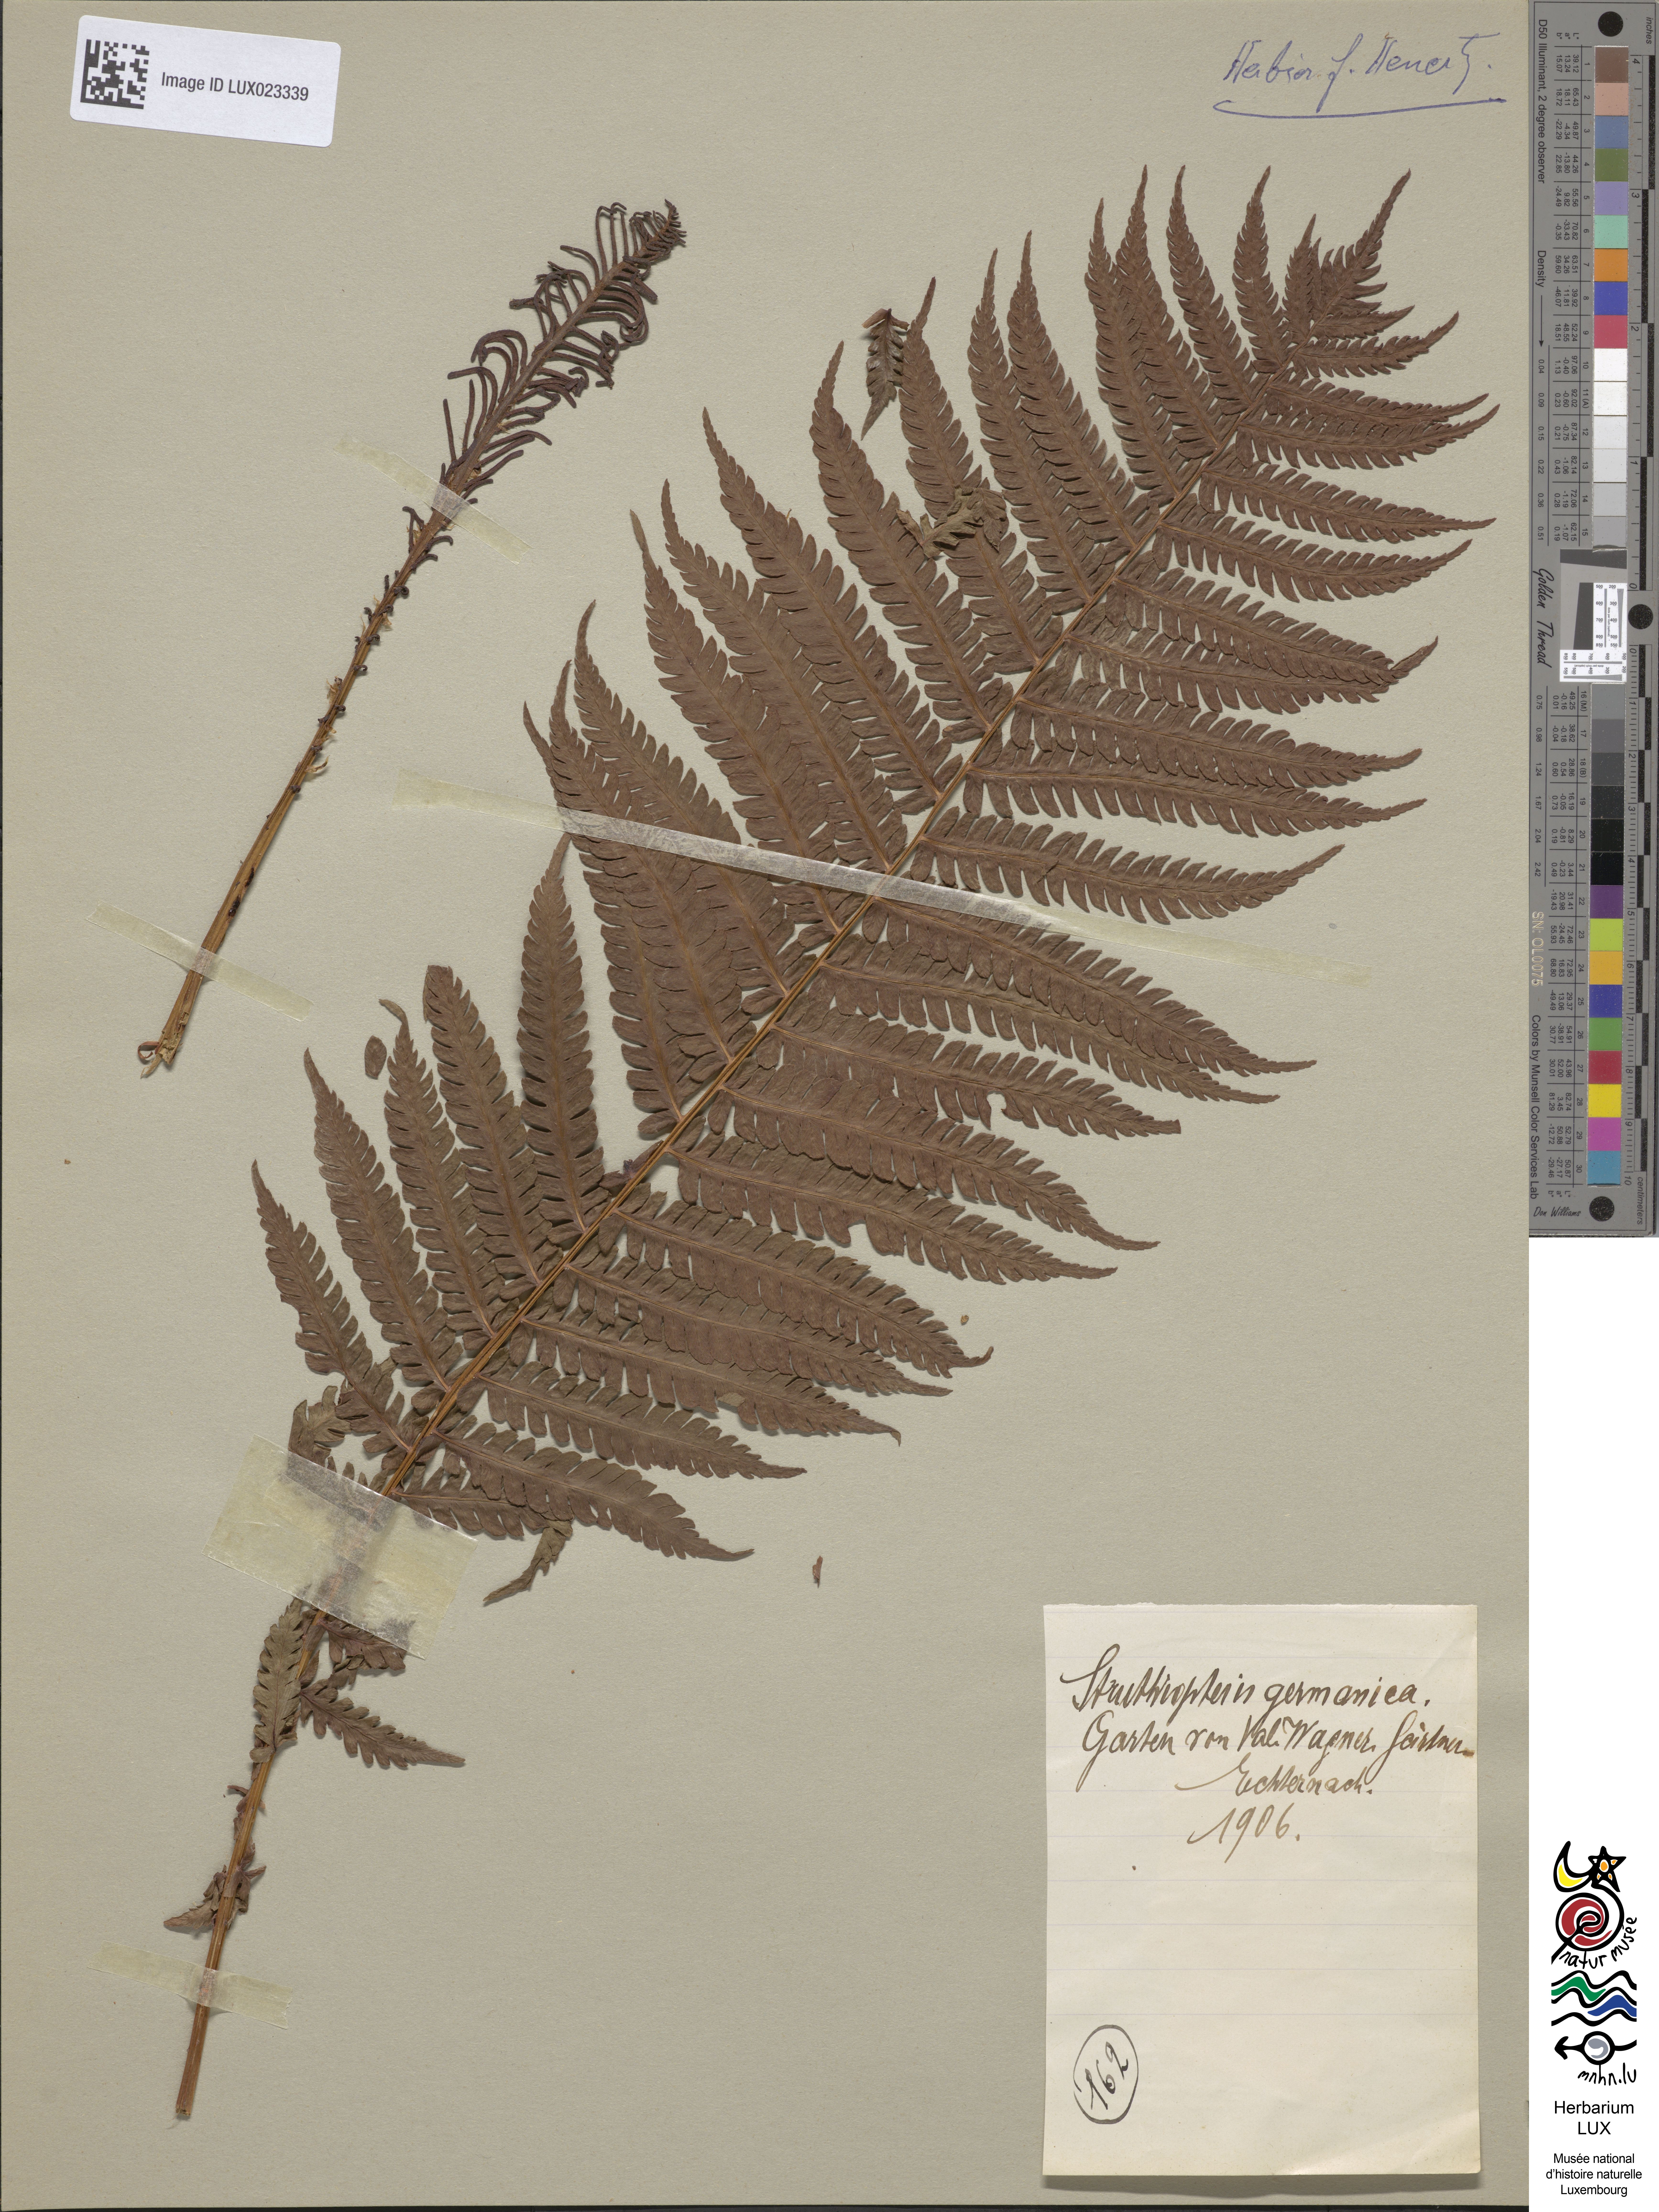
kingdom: Plantae
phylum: Tracheophyta
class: Polypodiopsida
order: Polypodiales
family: Onocleaceae
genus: Matteuccia
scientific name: Matteuccia struthiopteris
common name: Ostrich fern
